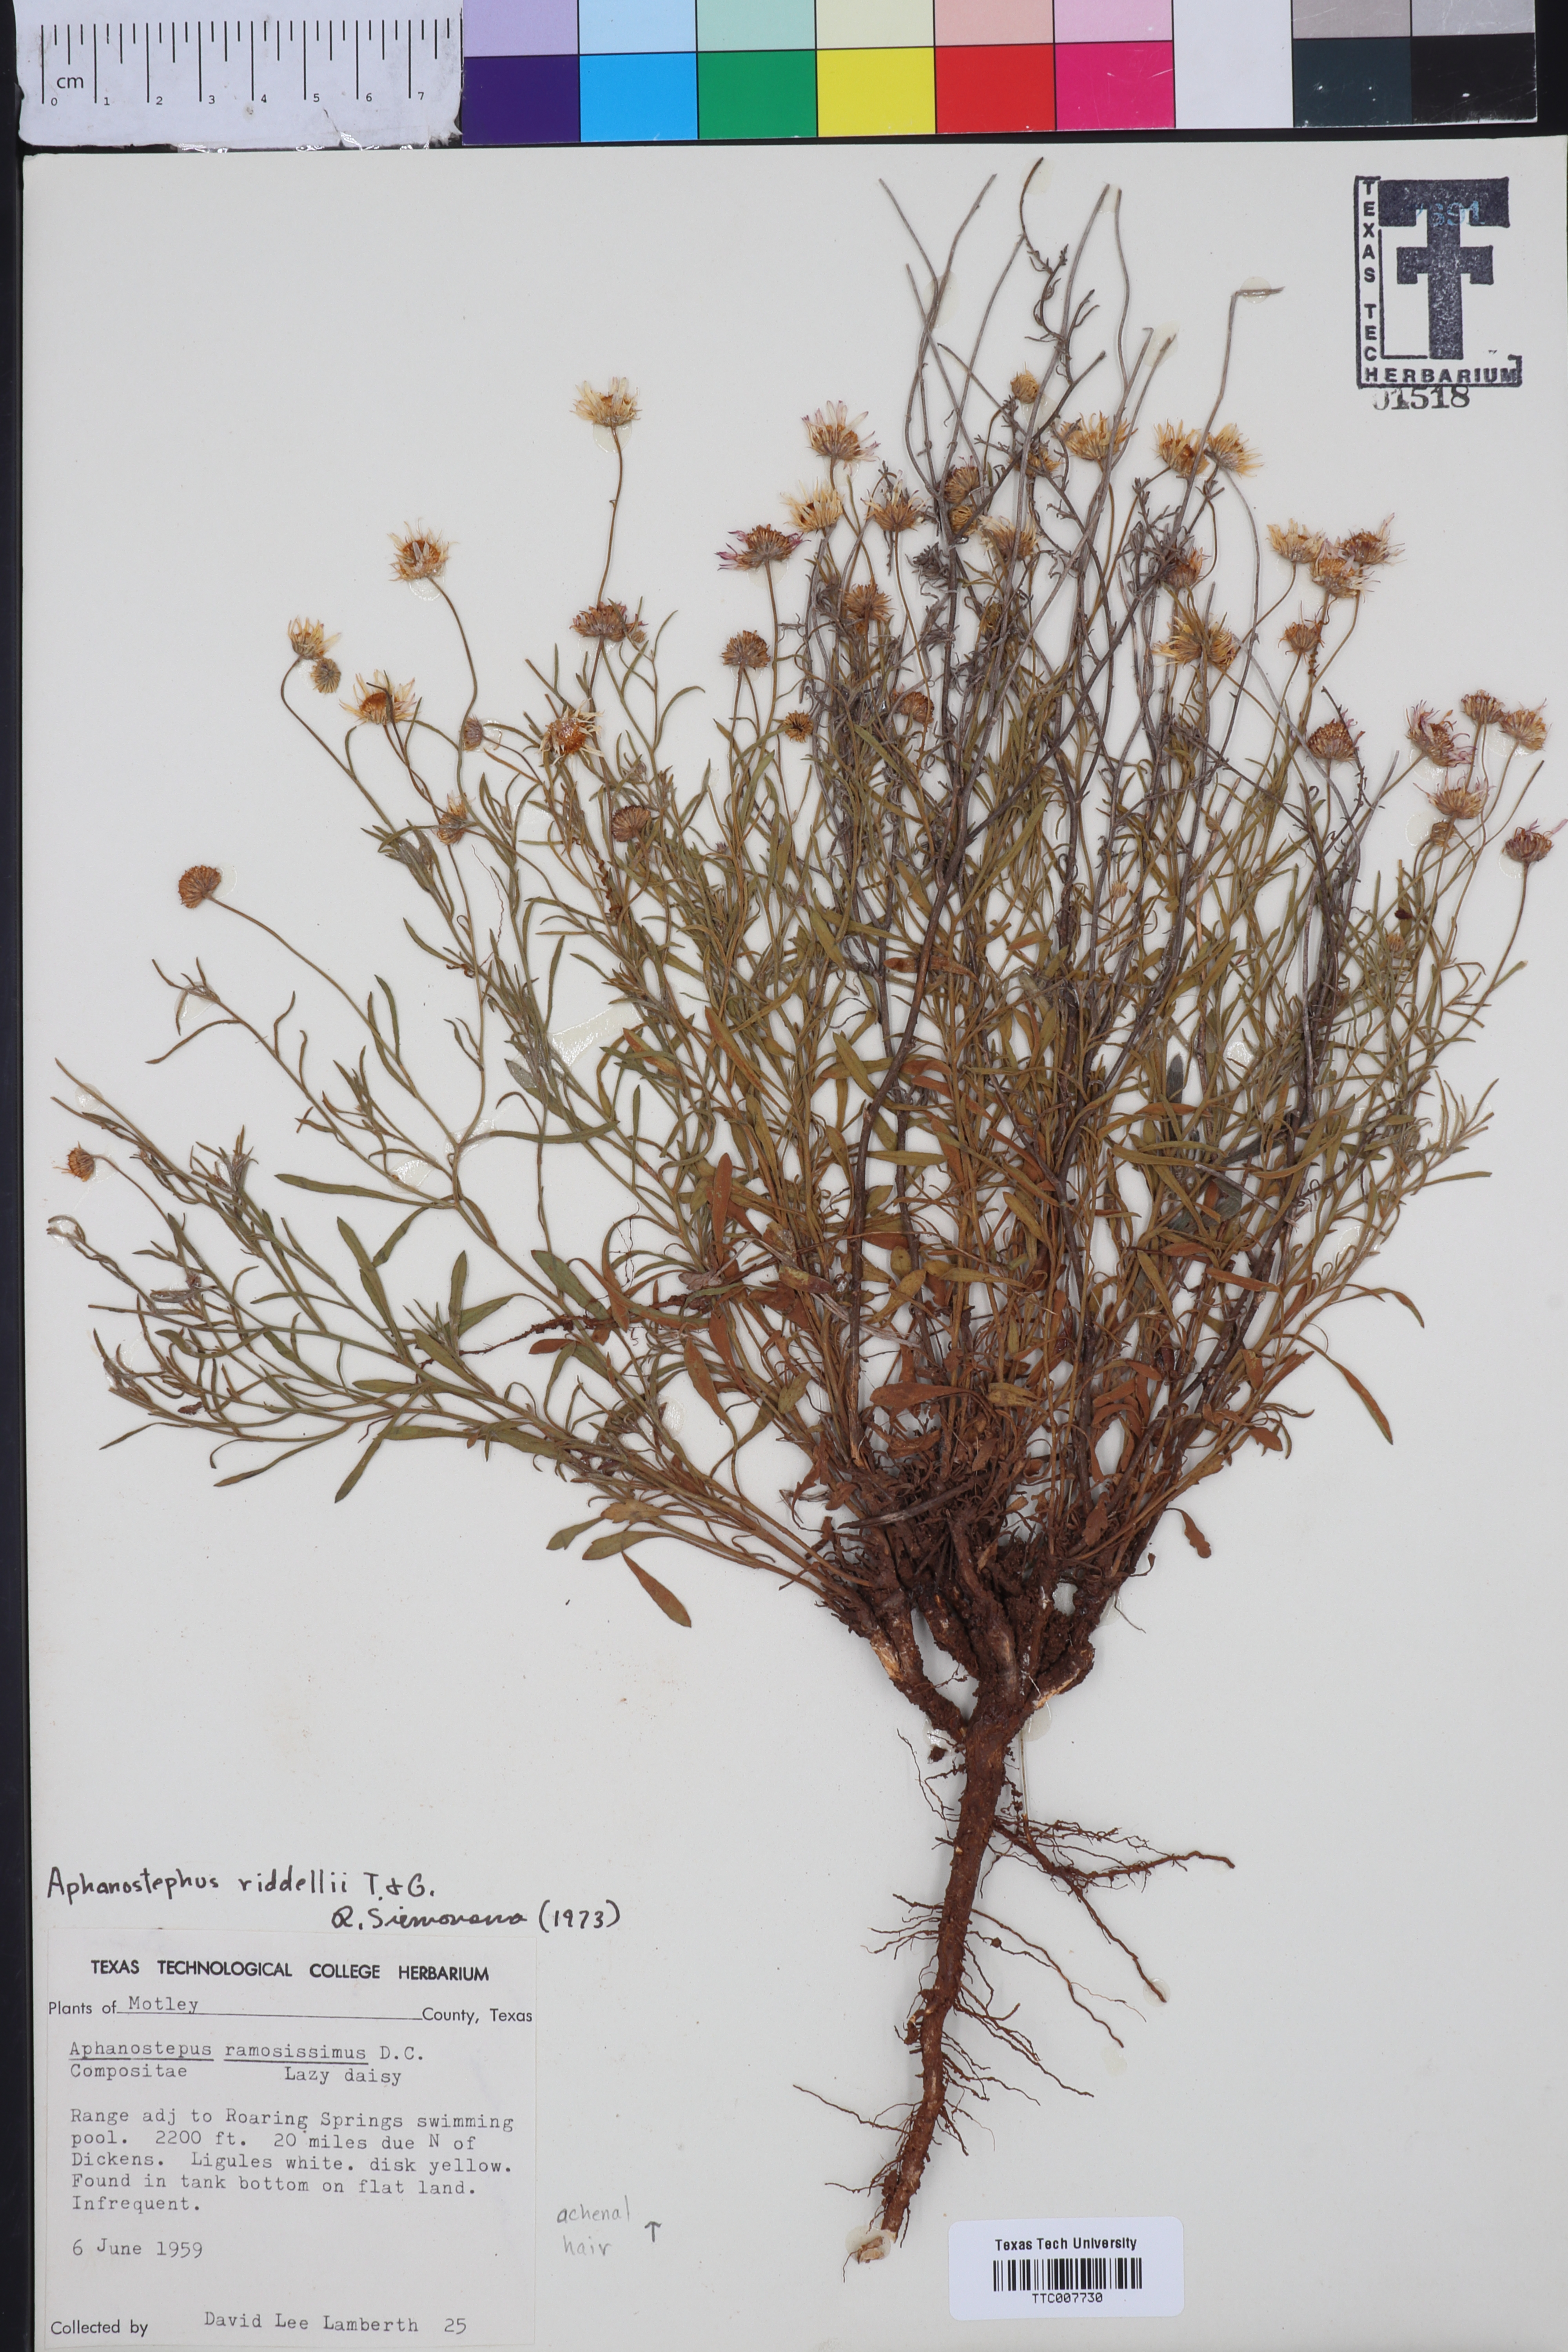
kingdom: Plantae
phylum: Tracheophyta
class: Magnoliopsida
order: Asterales
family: Asteraceae
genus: Aphanostephus
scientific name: Aphanostephus riddellii
